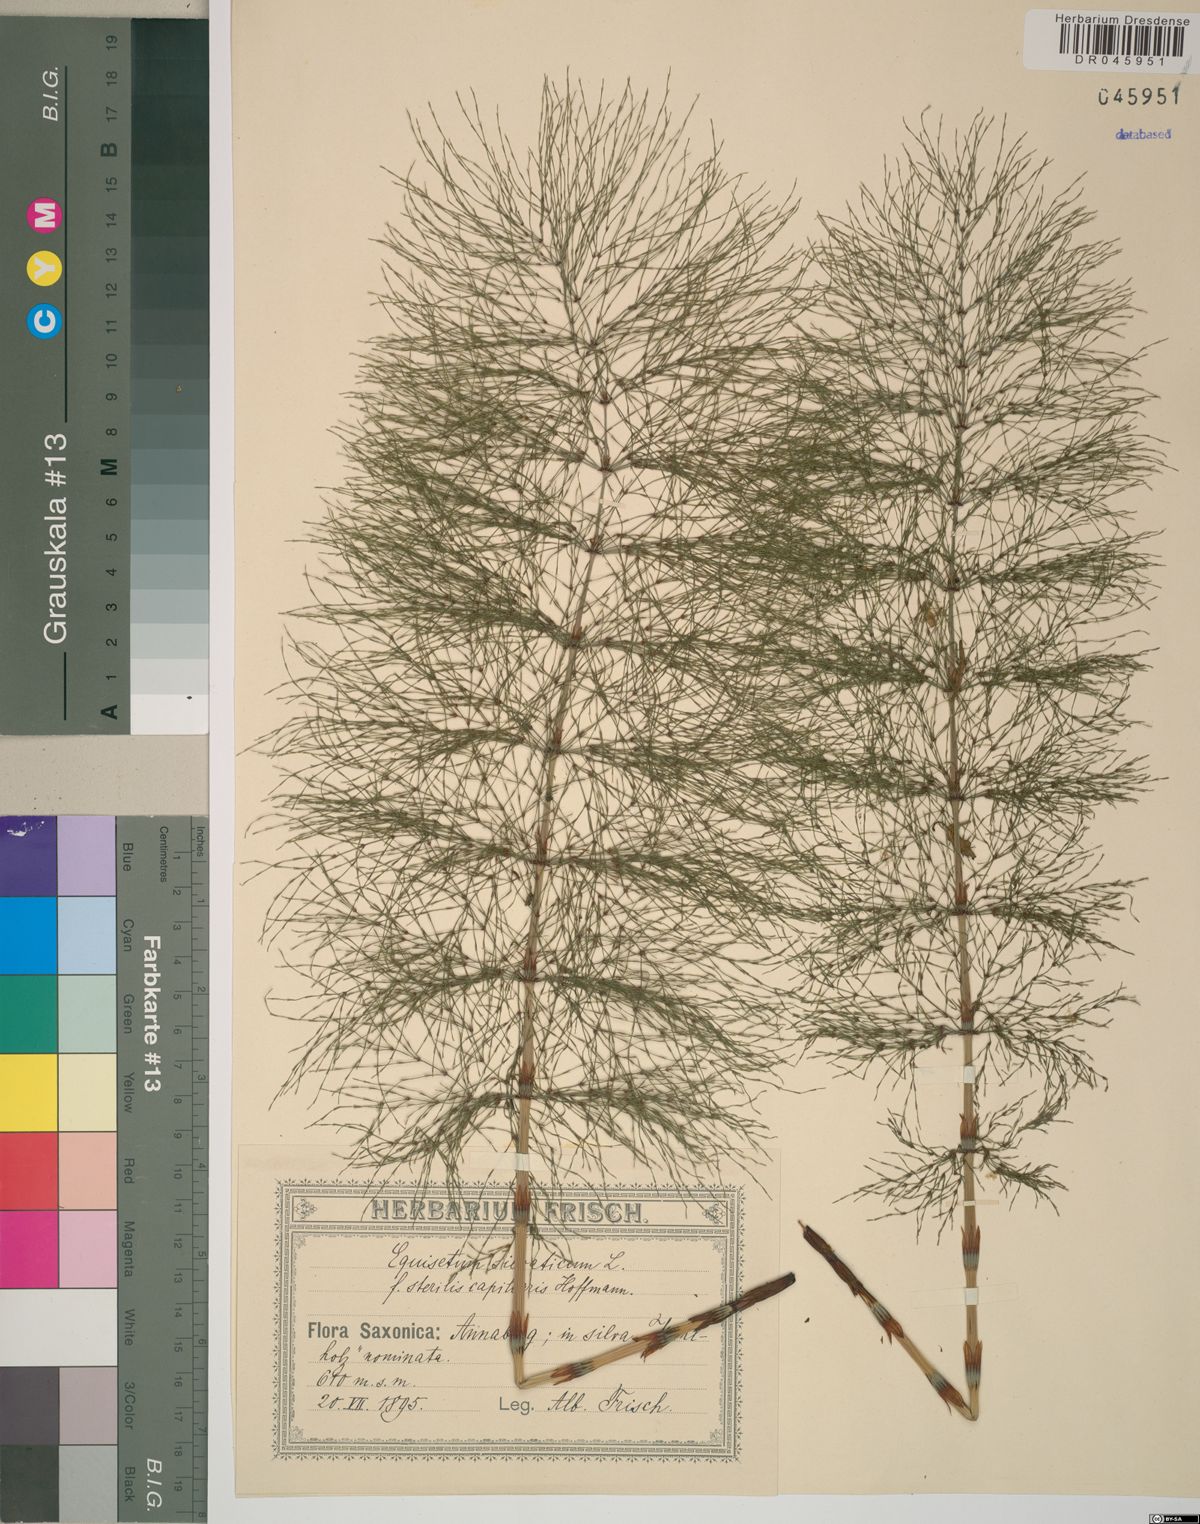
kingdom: Plantae
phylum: Tracheophyta
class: Polypodiopsida
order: Equisetales
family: Equisetaceae
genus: Equisetum
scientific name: Equisetum sylvaticum
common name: Wood horsetail
